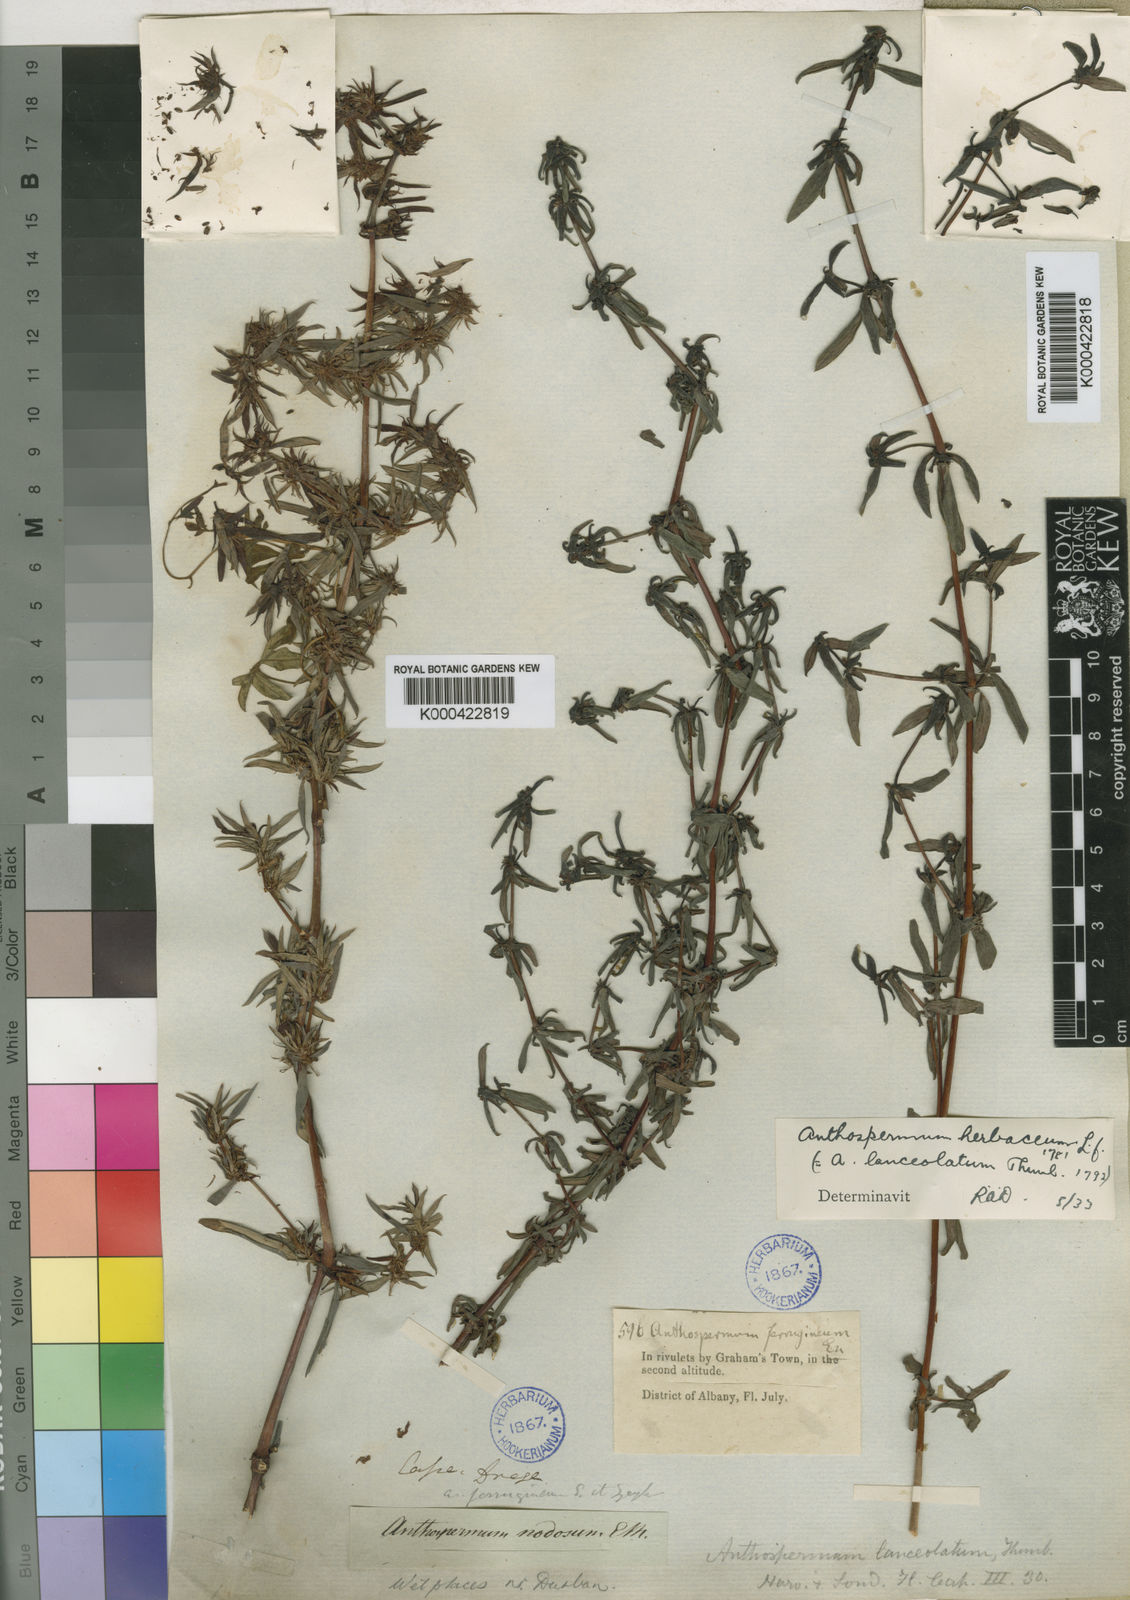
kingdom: Plantae
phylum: Tracheophyta
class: Magnoliopsida
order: Gentianales
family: Rubiaceae
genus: Anthospermum
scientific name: Anthospermum herbaceum
